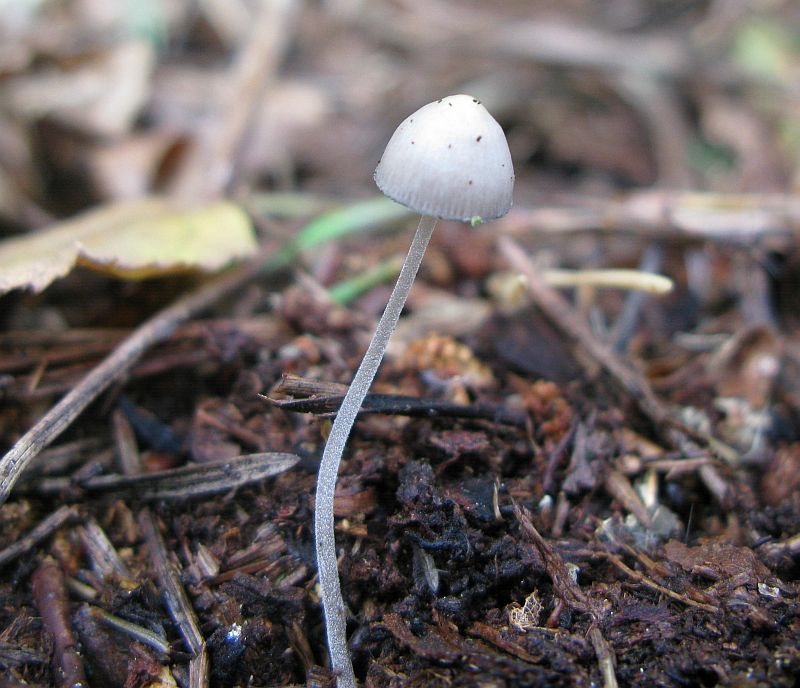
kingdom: Fungi
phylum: Basidiomycota
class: Agaricomycetes
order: Agaricales
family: Mycenaceae
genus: Mycena
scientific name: Mycena amicta
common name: iris-huesvamp
